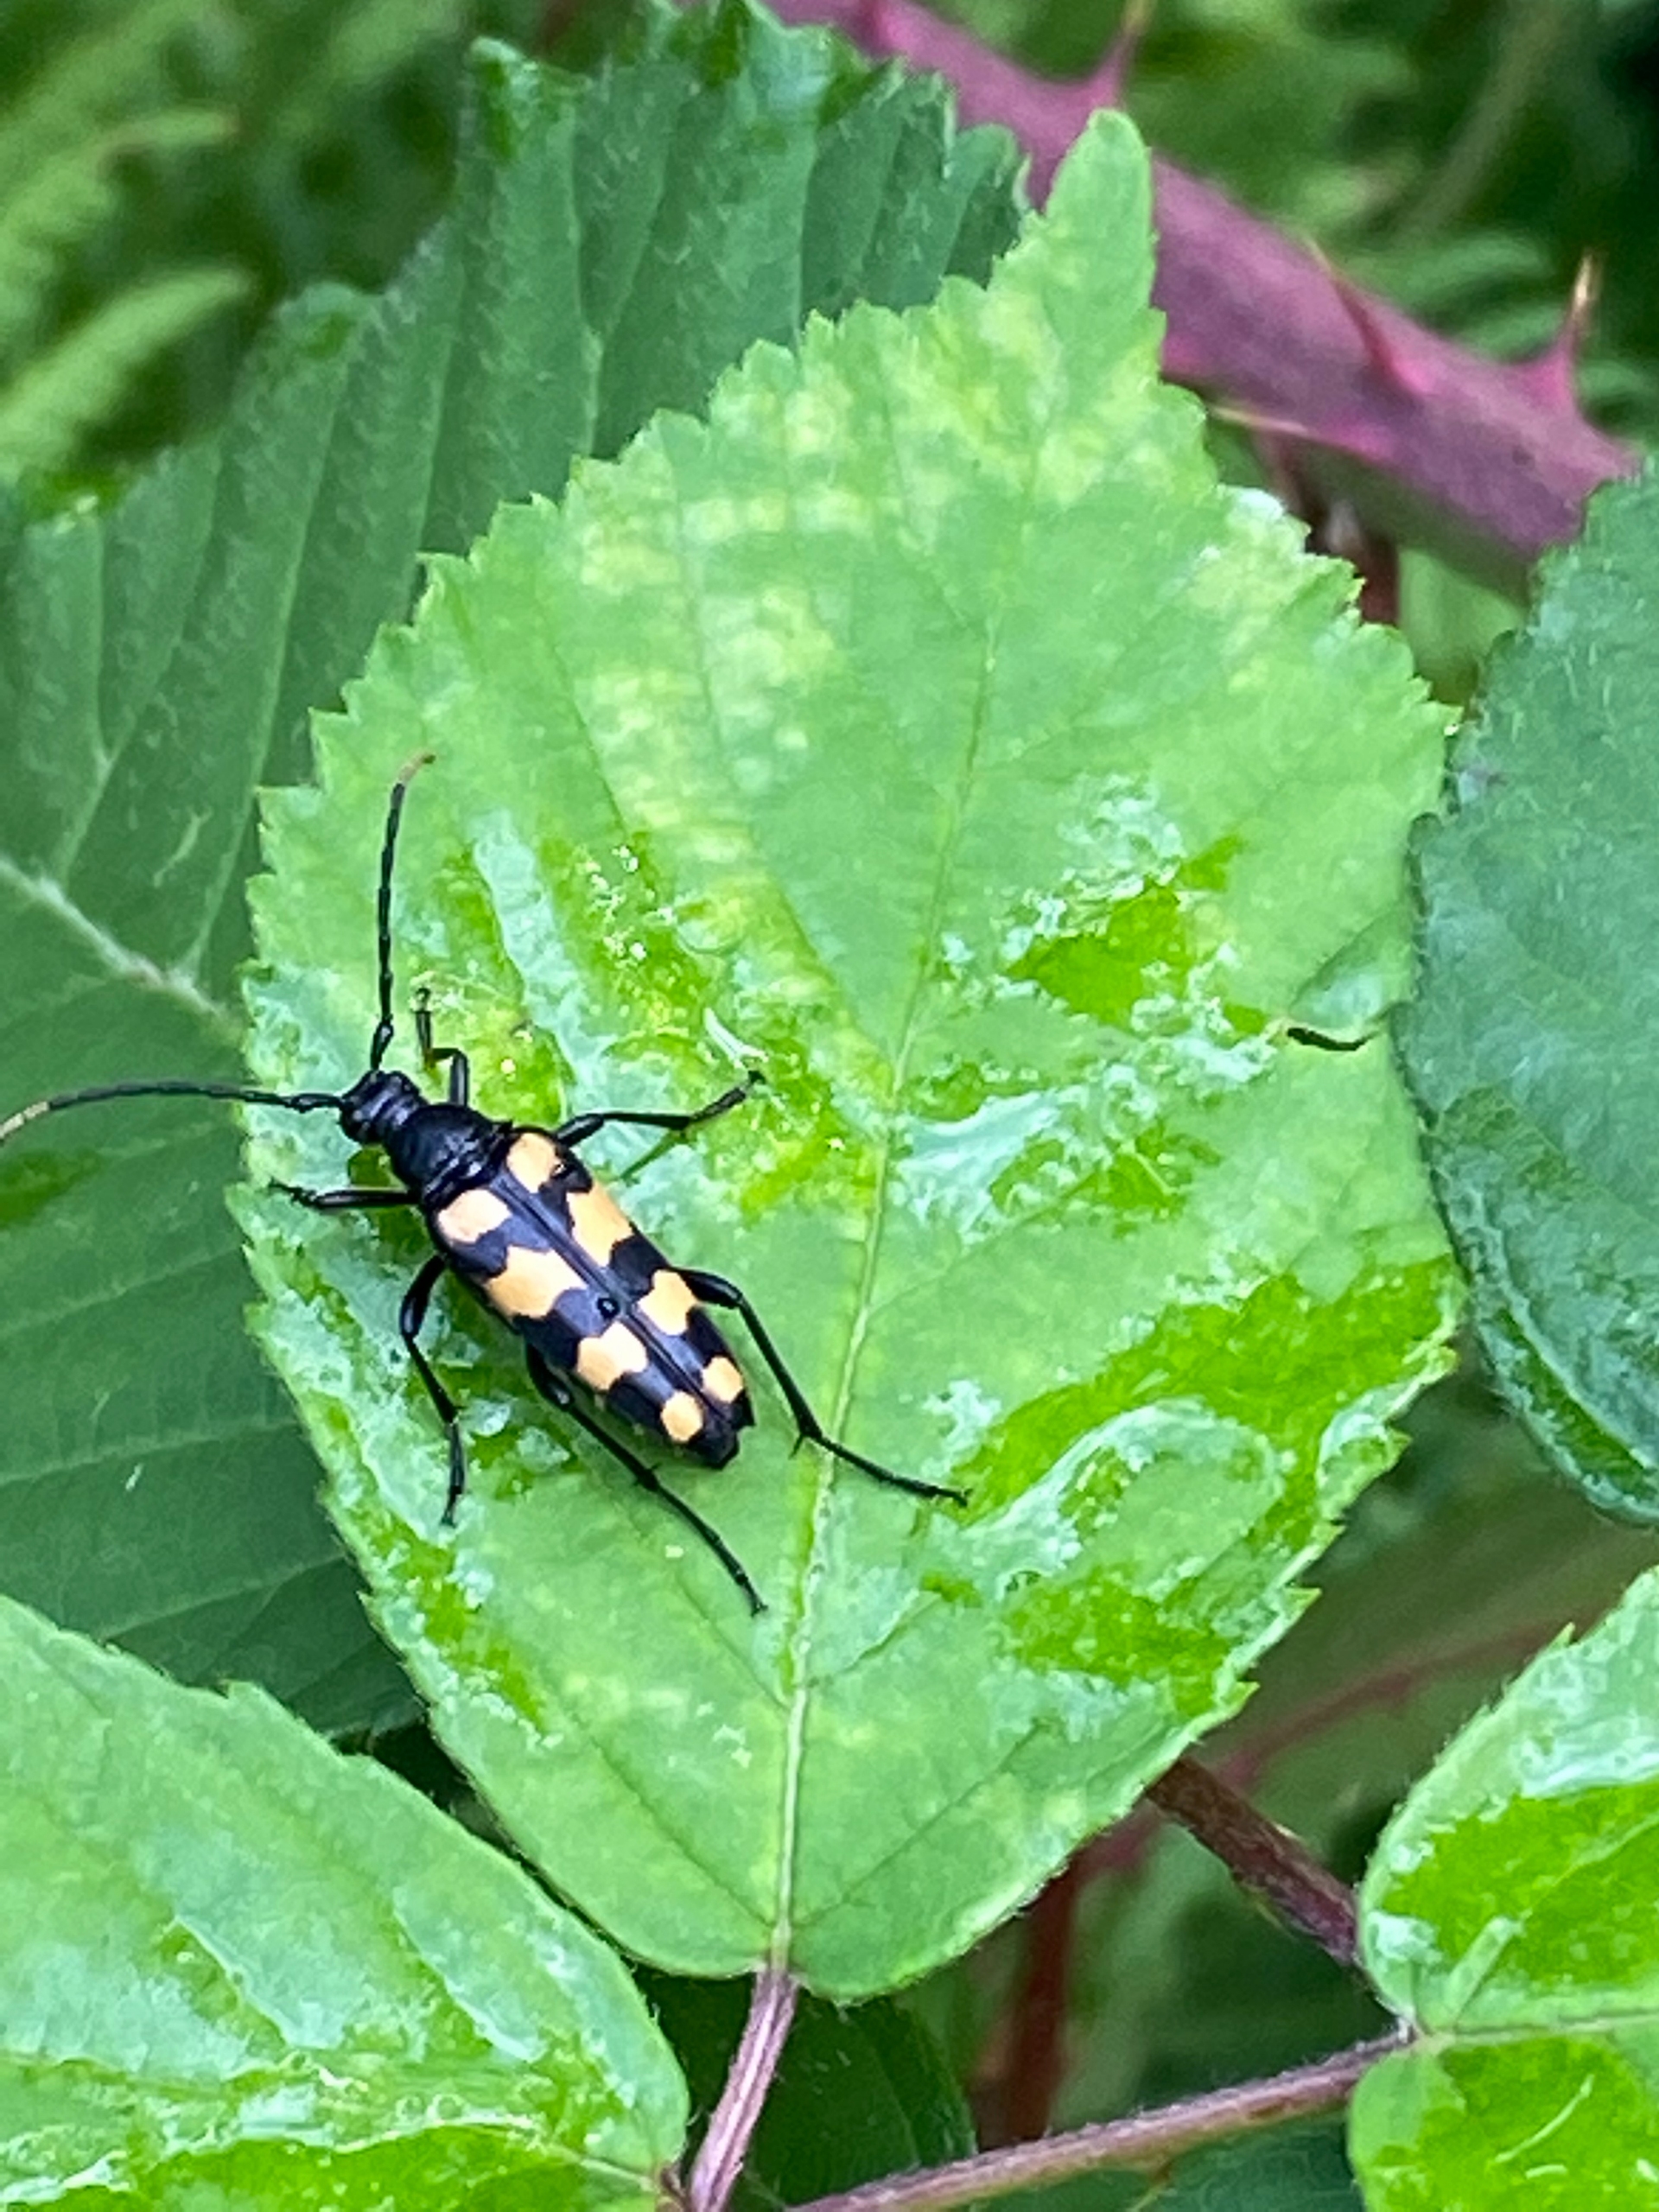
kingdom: Animalia
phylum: Arthropoda
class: Insecta
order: Coleoptera
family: Cerambycidae
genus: Leptura
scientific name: Leptura quadrifasciata
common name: Firebåndet blomsterbuk
